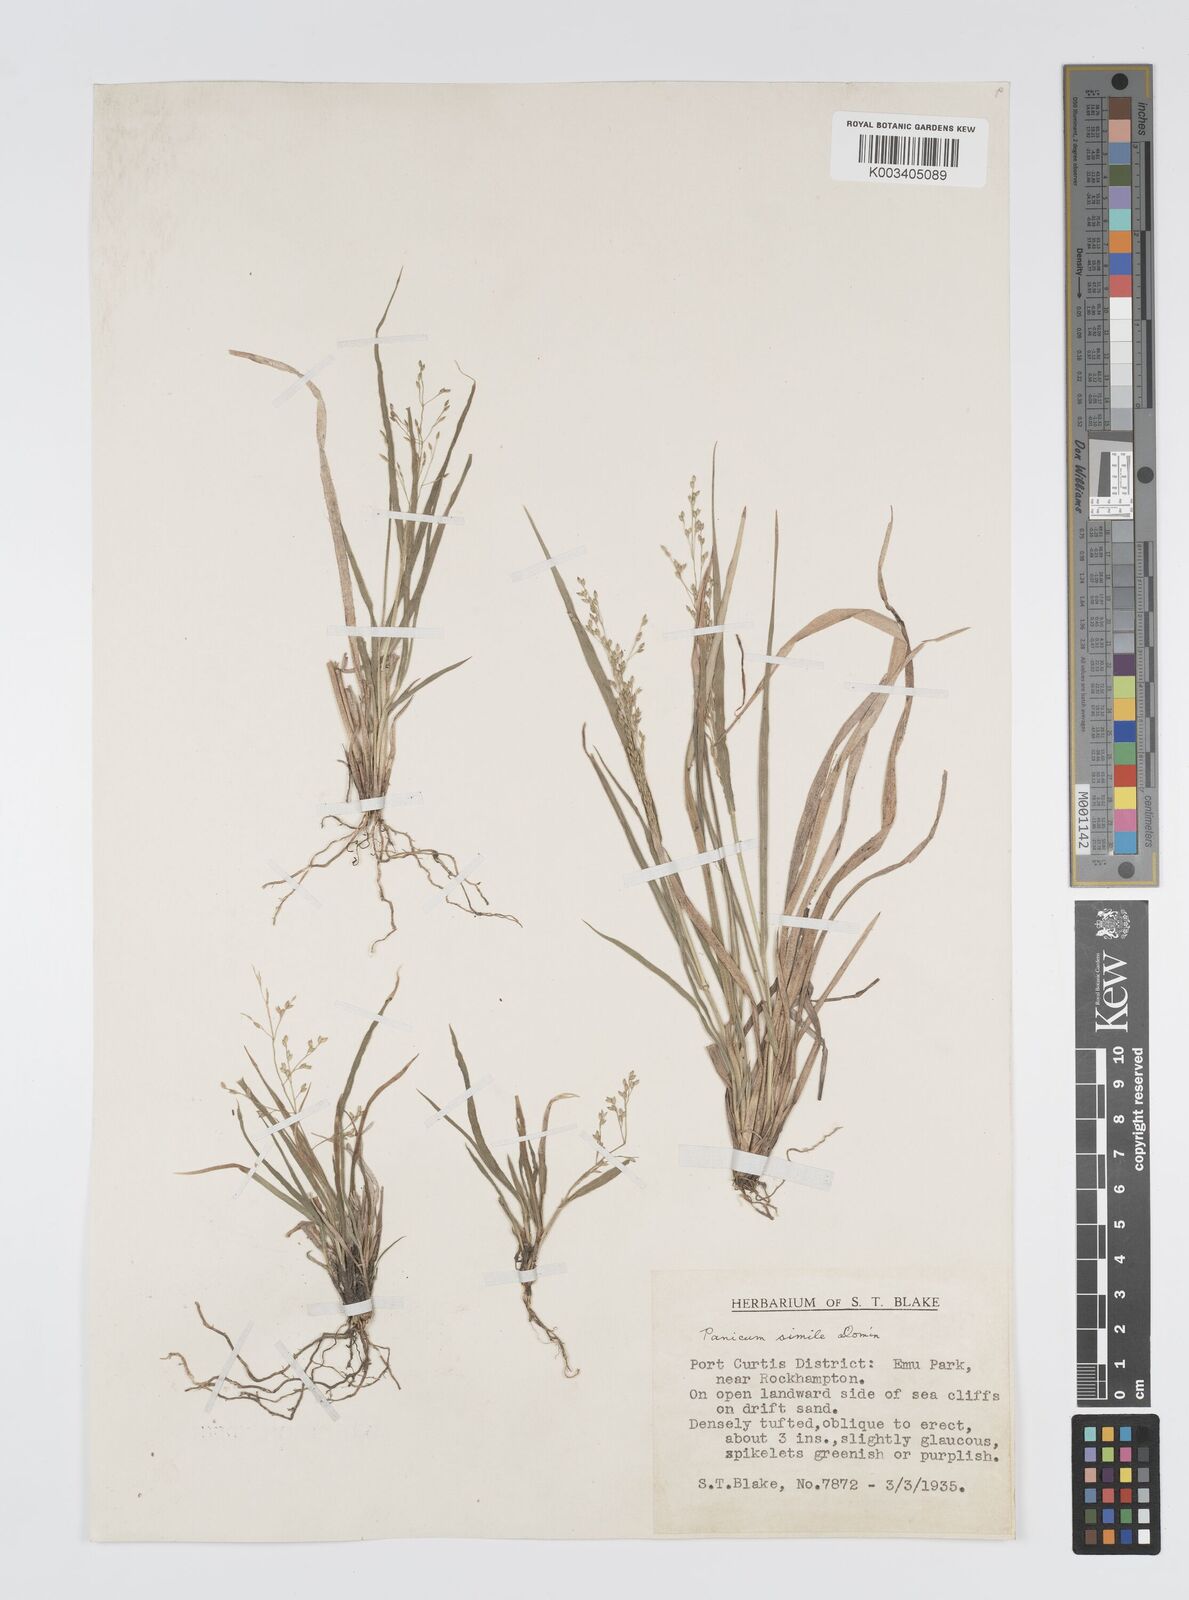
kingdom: Plantae
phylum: Tracheophyta
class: Liliopsida
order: Poales
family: Poaceae
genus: Panicum
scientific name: Panicum simile
